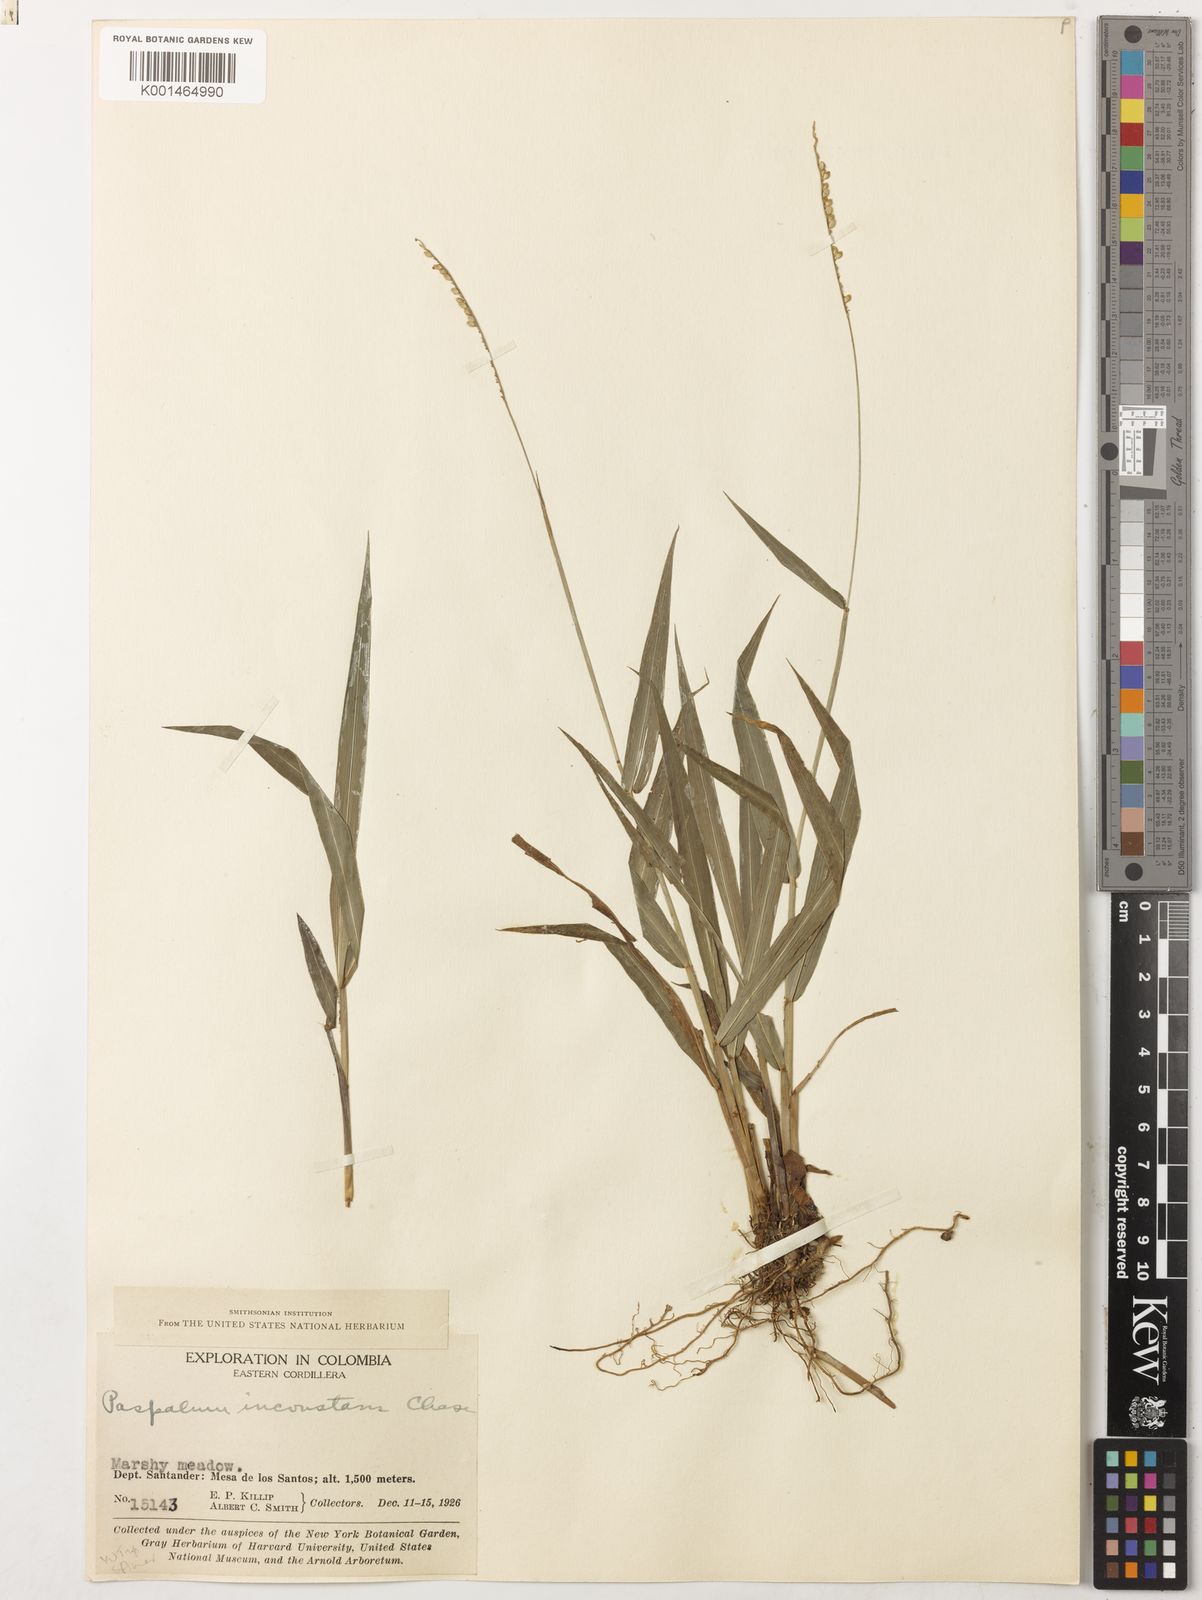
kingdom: Plantae
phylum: Tracheophyta
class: Liliopsida
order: Poales
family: Poaceae
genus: Paspalum
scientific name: Paspalum inconstans
